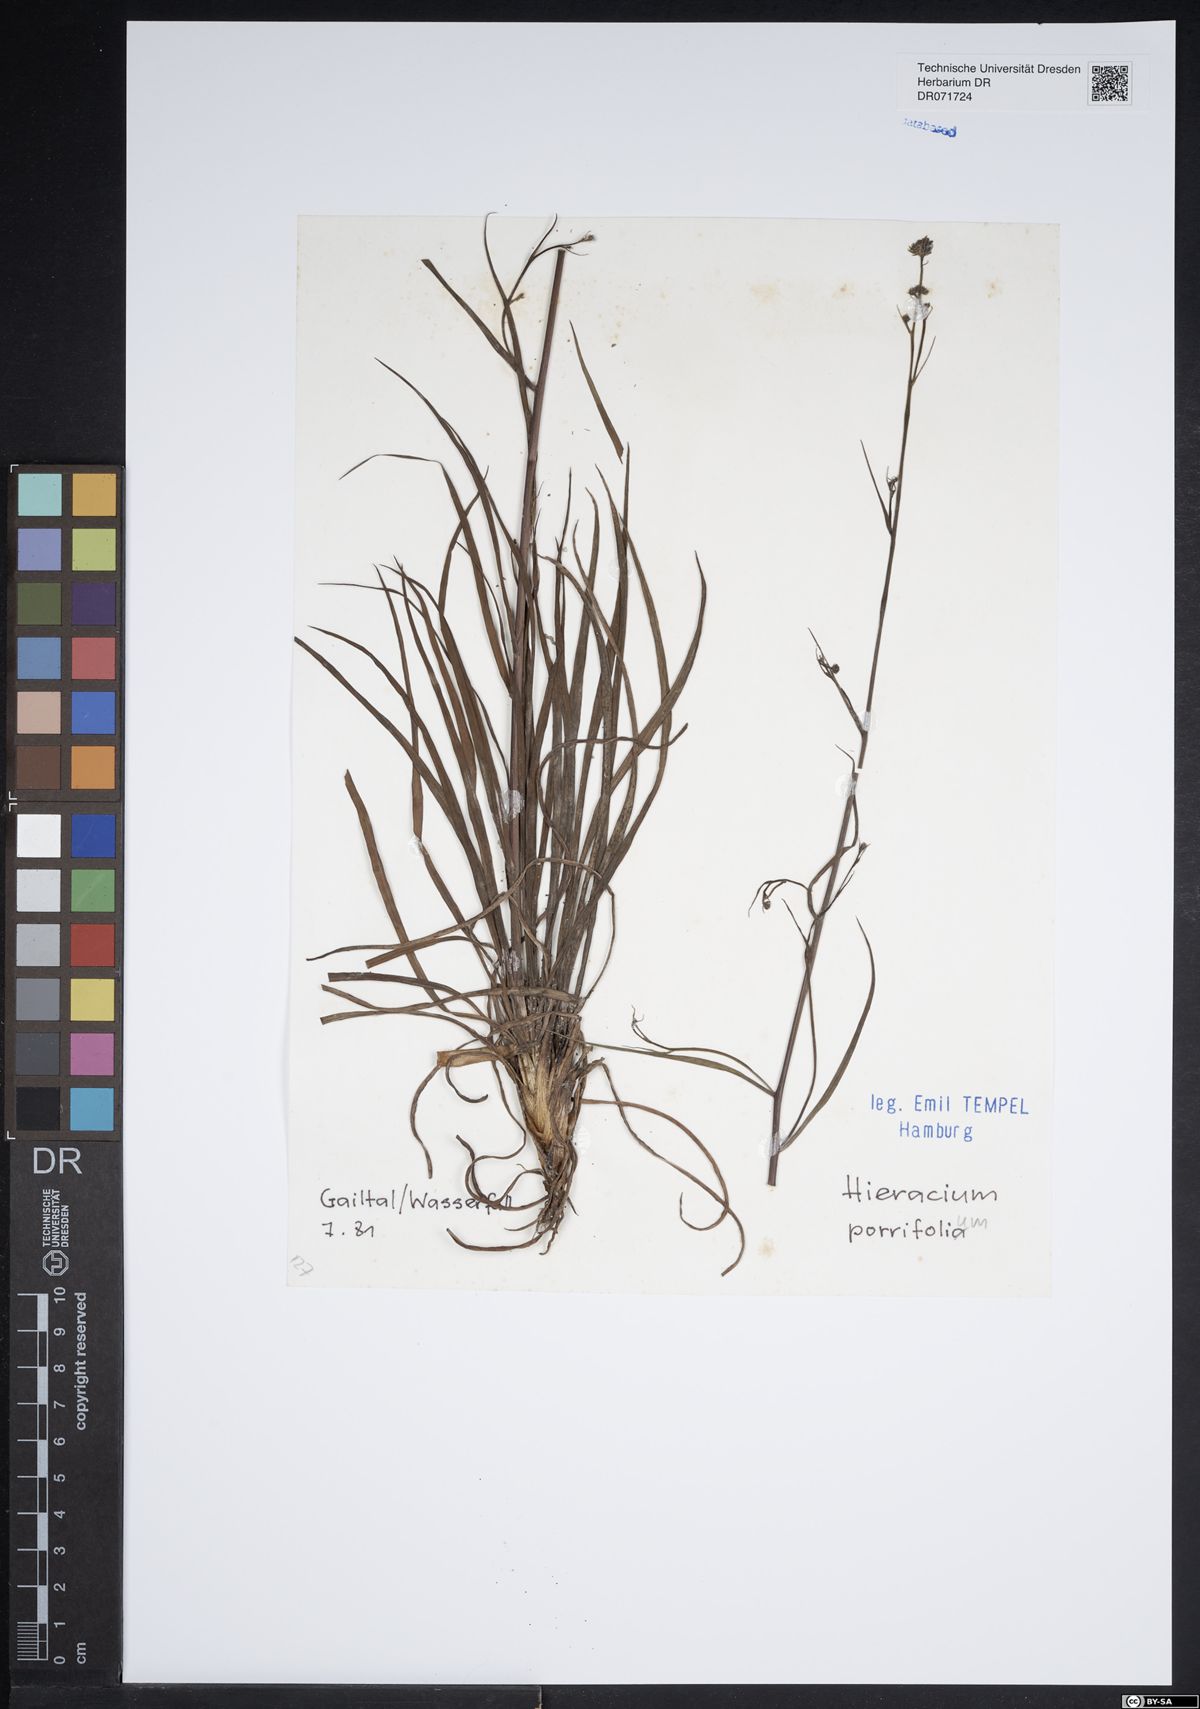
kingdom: Plantae
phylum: Tracheophyta
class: Magnoliopsida
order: Asterales
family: Asteraceae
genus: Hieracium
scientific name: Hieracium porrifolium
